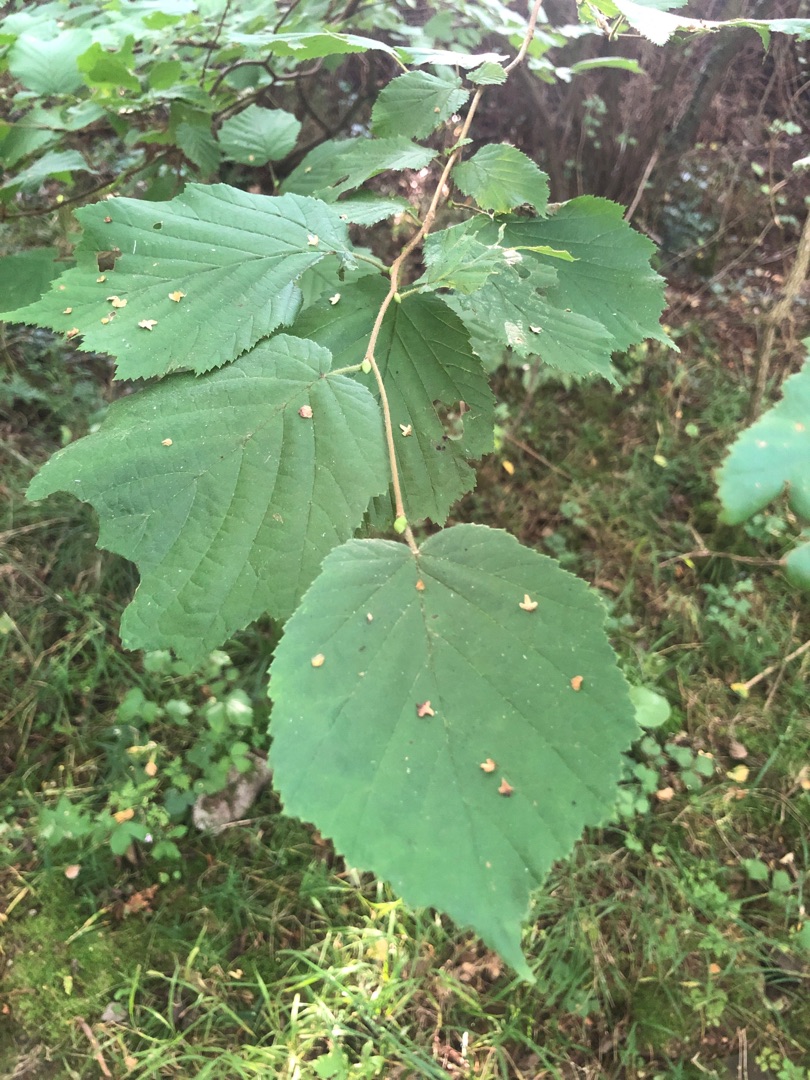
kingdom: Plantae
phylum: Tracheophyta
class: Magnoliopsida
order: Fagales
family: Betulaceae
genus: Corylus
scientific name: Corylus avellana
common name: Hassel
